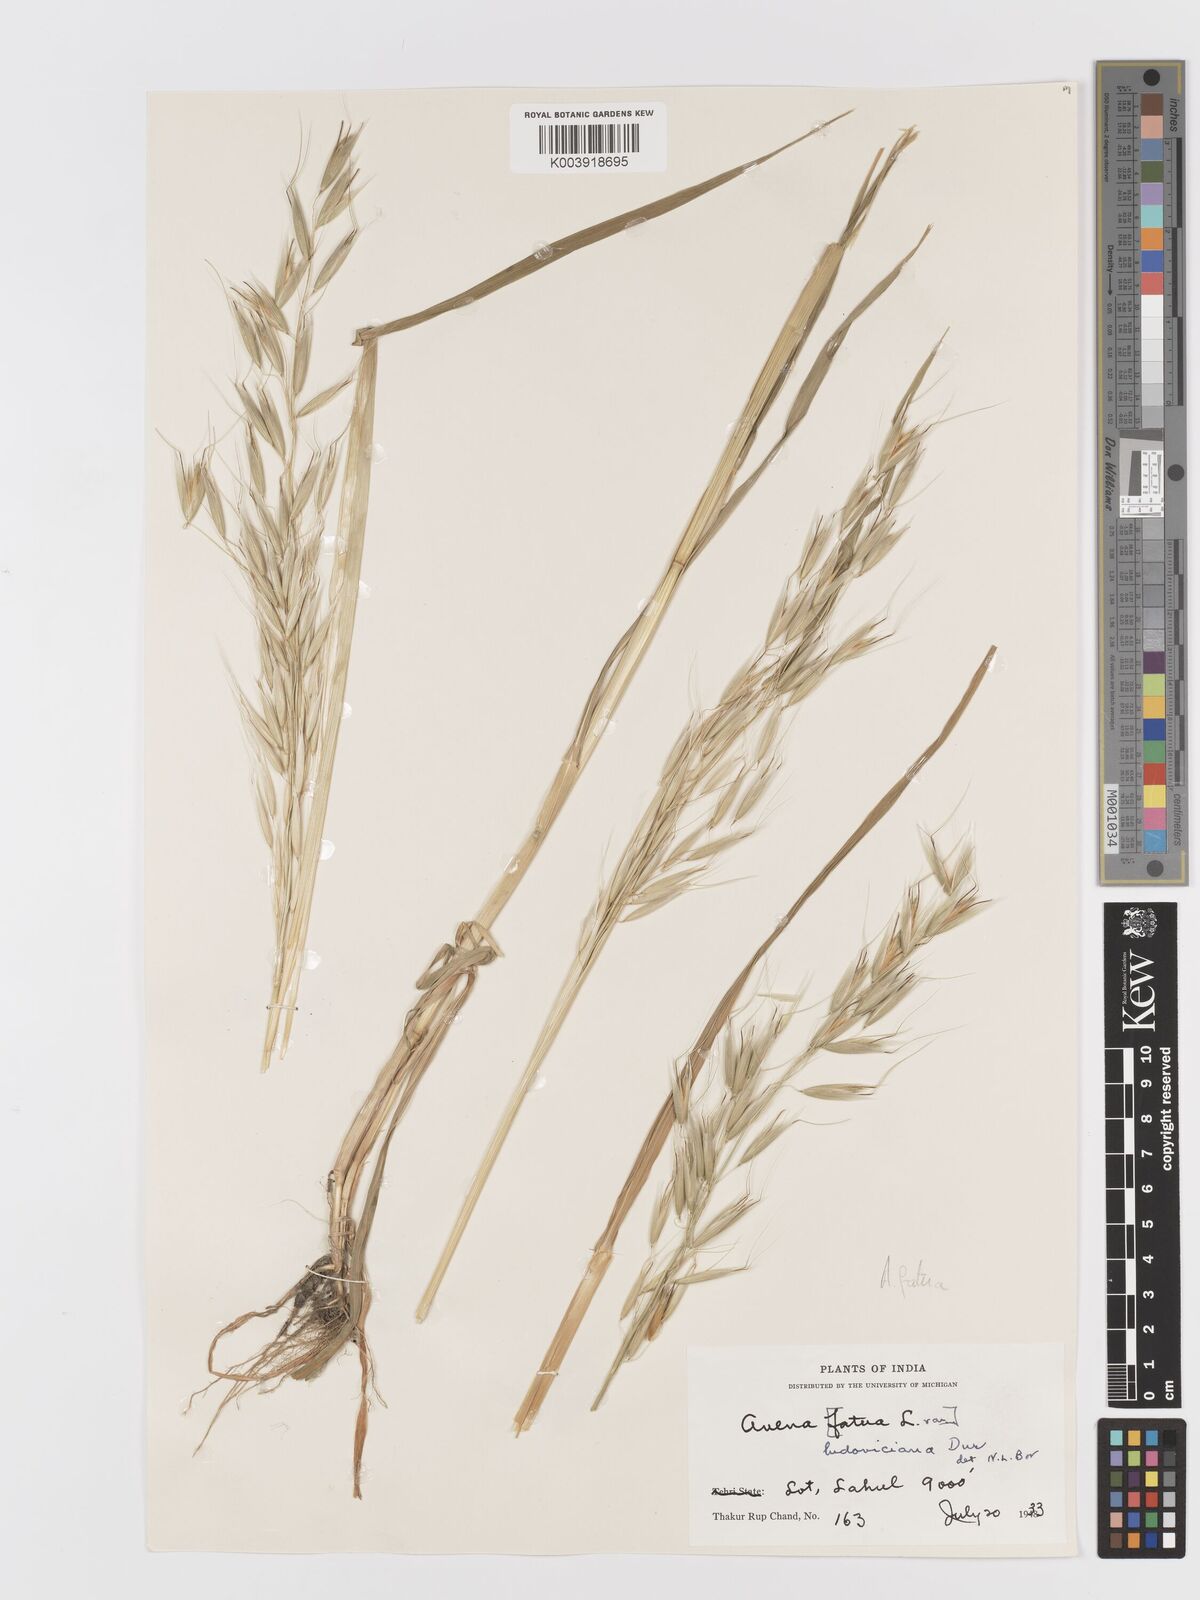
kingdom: Plantae
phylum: Tracheophyta
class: Liliopsida
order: Poales
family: Poaceae
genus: Avena
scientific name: Avena fatua
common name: Wild oat
